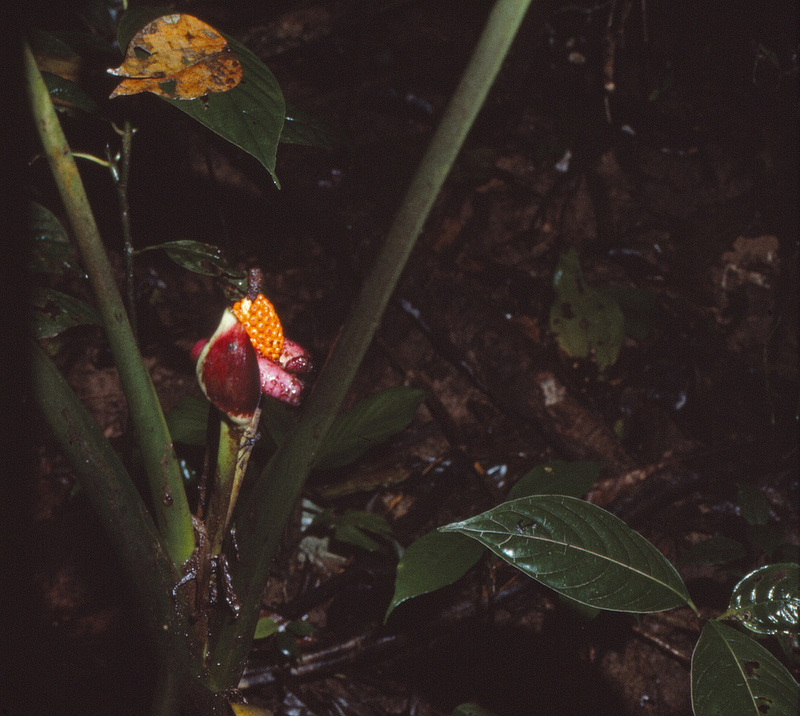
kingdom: Plantae
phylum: Tracheophyta
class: Liliopsida
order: Alismatales
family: Araceae
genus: Xanthosoma
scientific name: Xanthosoma
